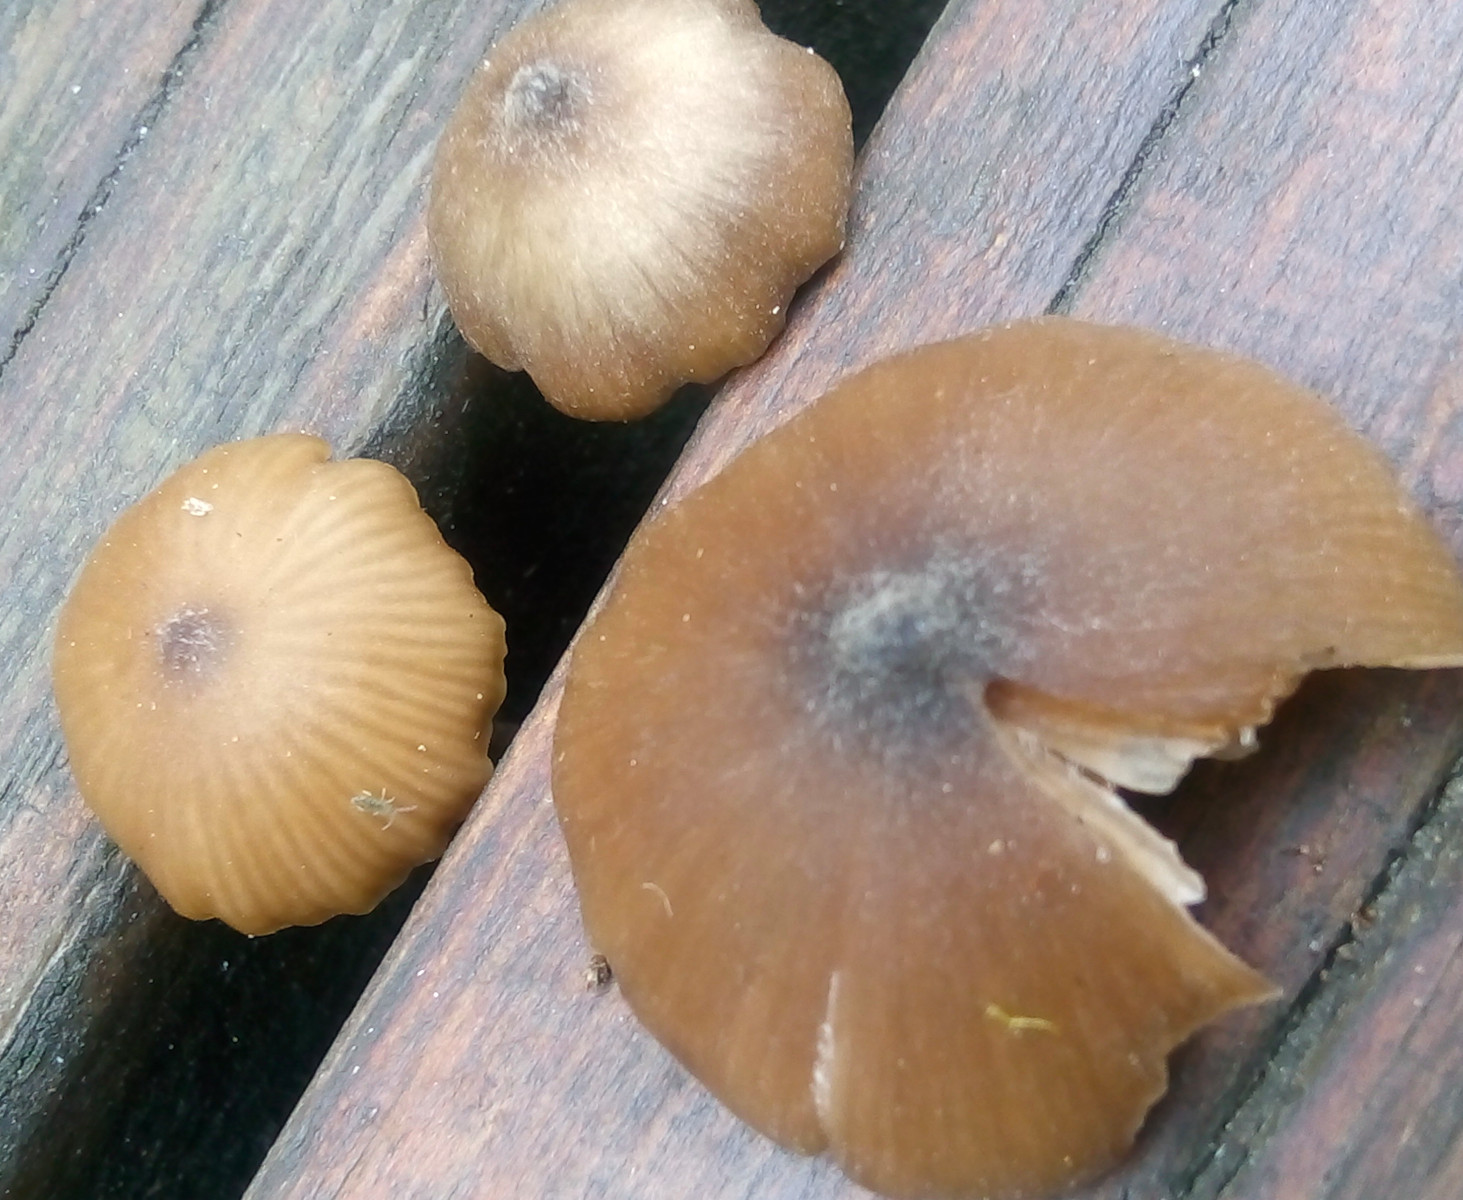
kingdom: Fungi
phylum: Basidiomycota
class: Agaricomycetes
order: Agaricales
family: Entolomataceae
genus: Entoloma
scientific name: Entoloma hebes
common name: krat-rødblad
